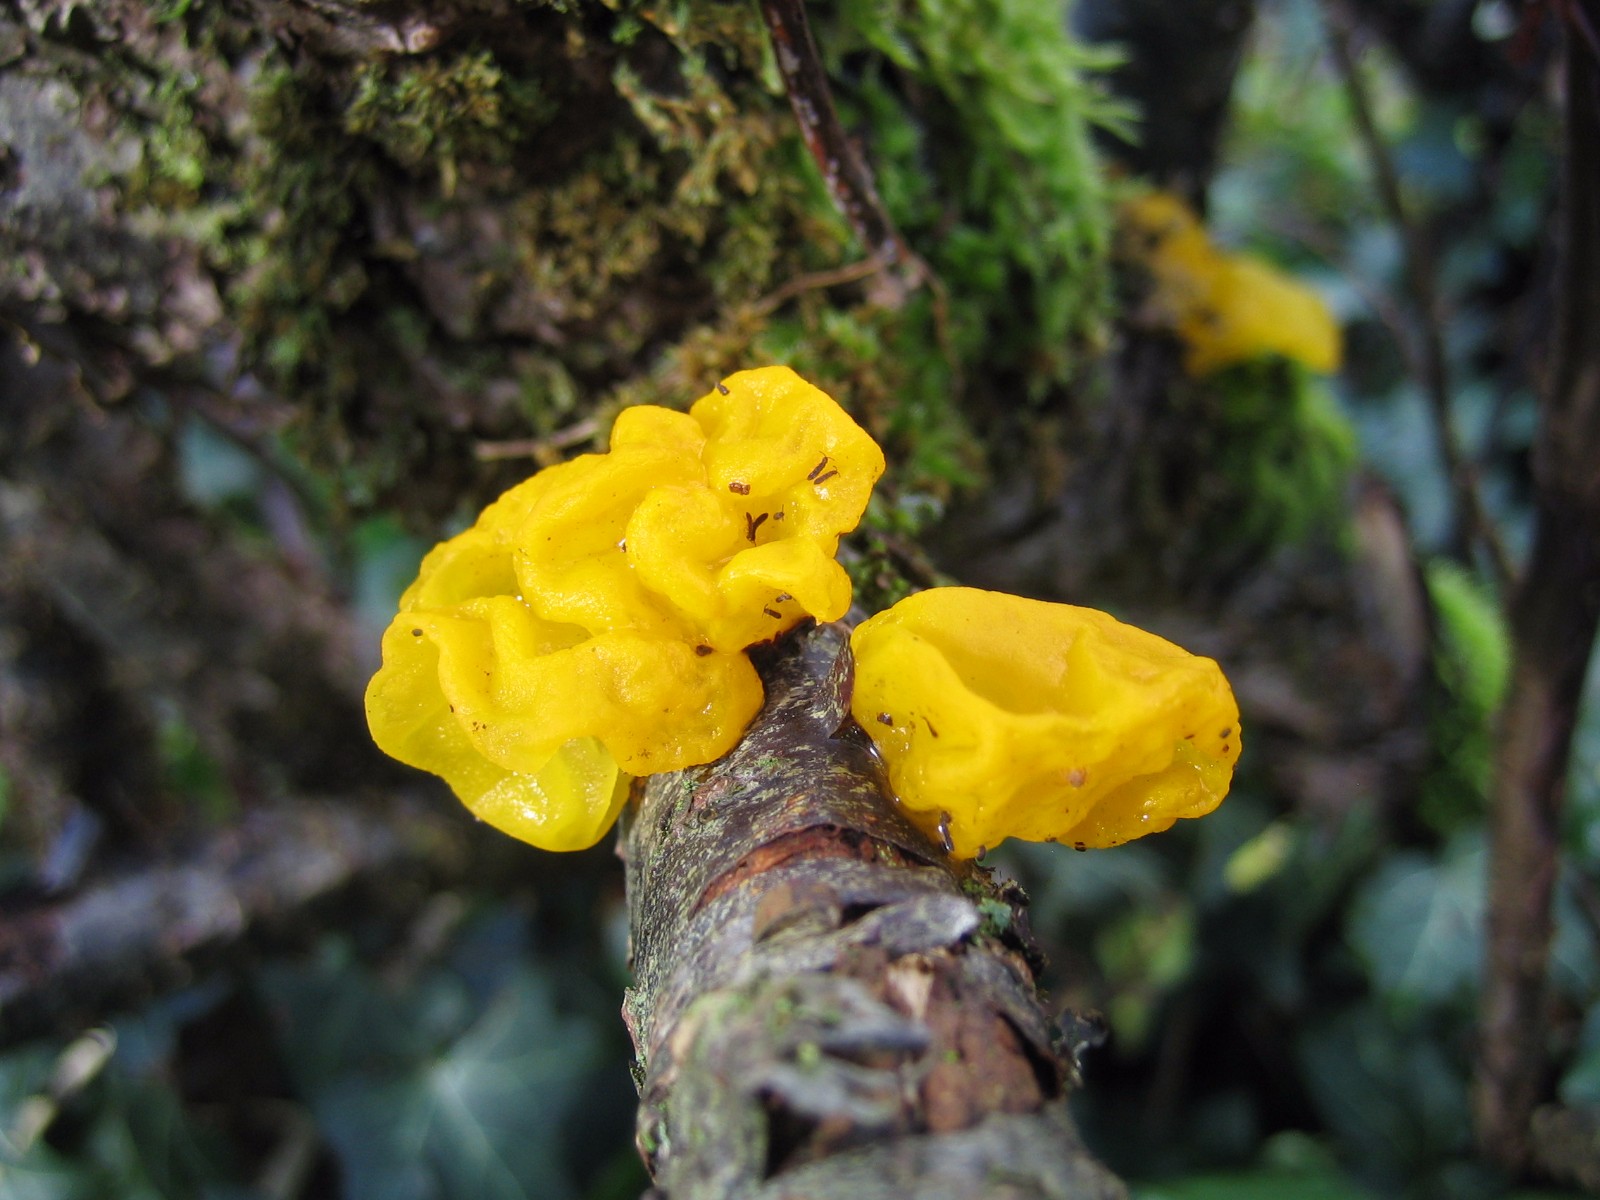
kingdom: Fungi
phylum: Basidiomycota
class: Tremellomycetes
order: Tremellales
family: Tremellaceae
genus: Tremella
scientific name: Tremella mesenterica
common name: gul bævresvamp
